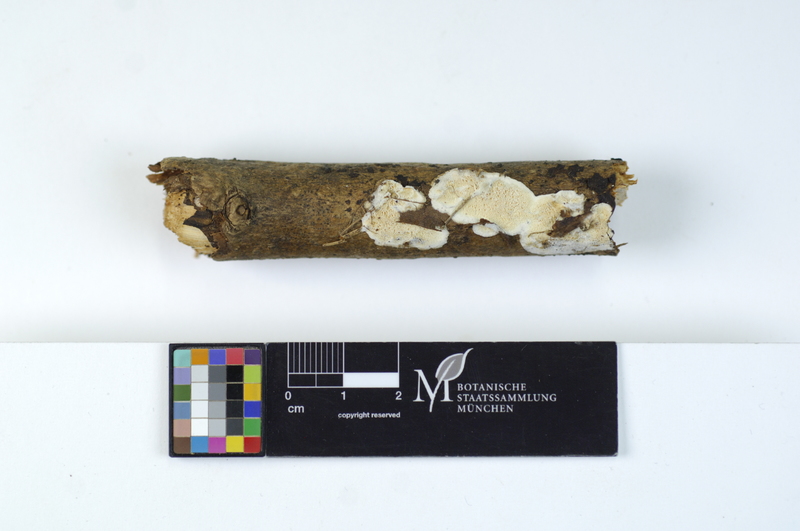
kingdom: Plantae
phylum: Tracheophyta
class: Magnoliopsida
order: Lamiales
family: Oleaceae
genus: Fraxinus
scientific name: Fraxinus
